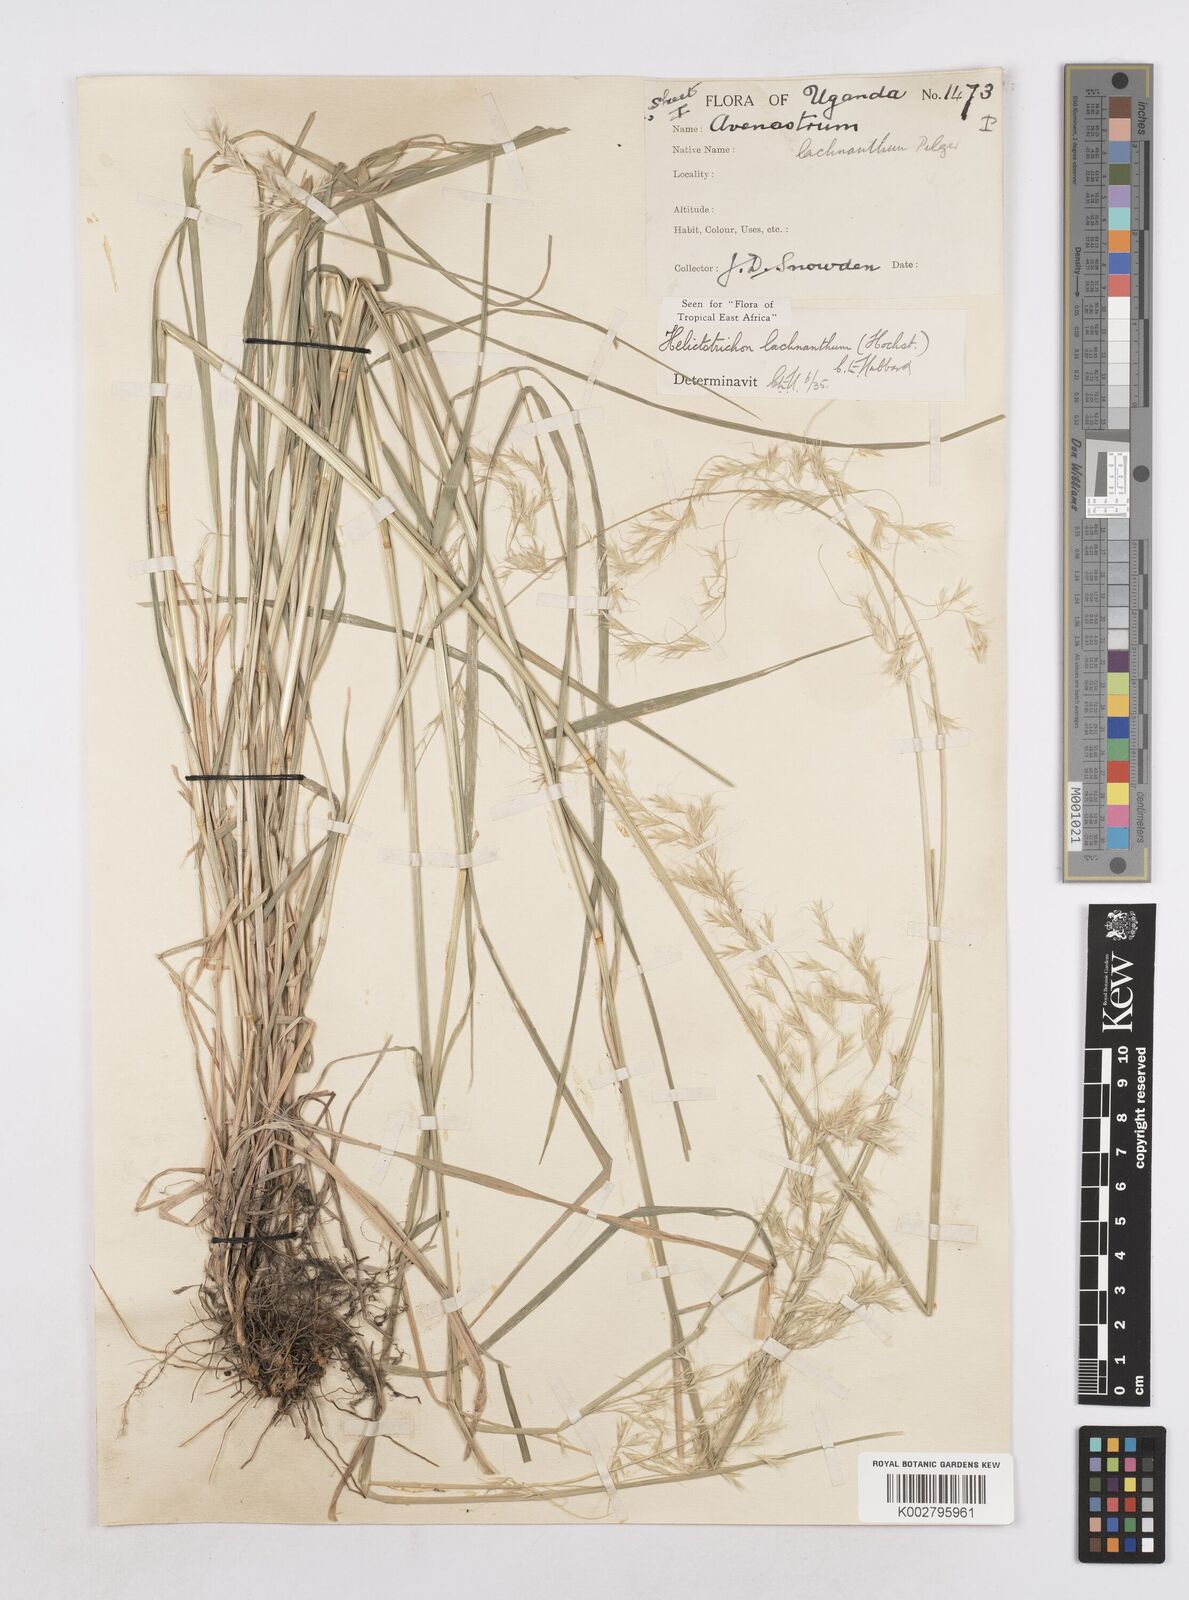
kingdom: Plantae
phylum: Tracheophyta
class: Liliopsida
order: Poales
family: Poaceae
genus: Trisetopsis
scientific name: Trisetopsis lachnantha
